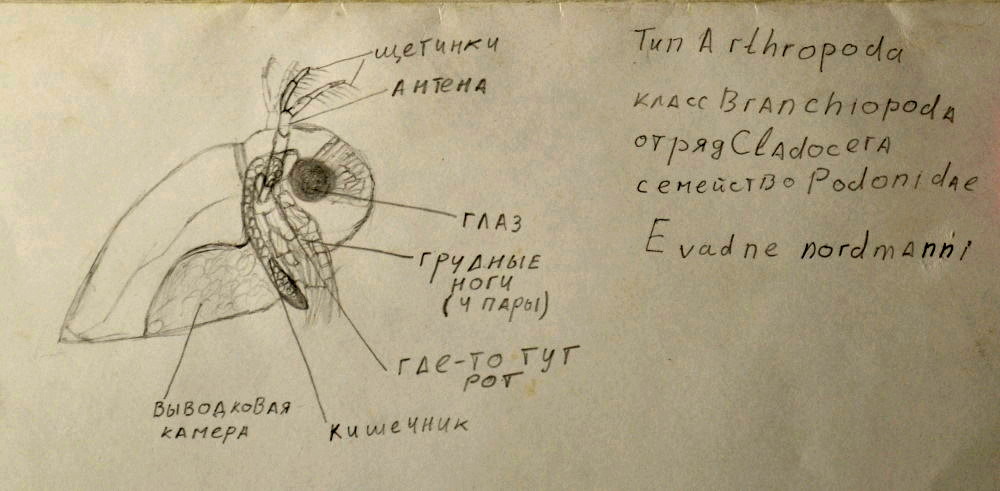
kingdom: Animalia
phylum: Arthropoda
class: Branchiopoda
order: Diplostraca
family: Podonidae
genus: Evadne
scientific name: Evadne nordmanni
